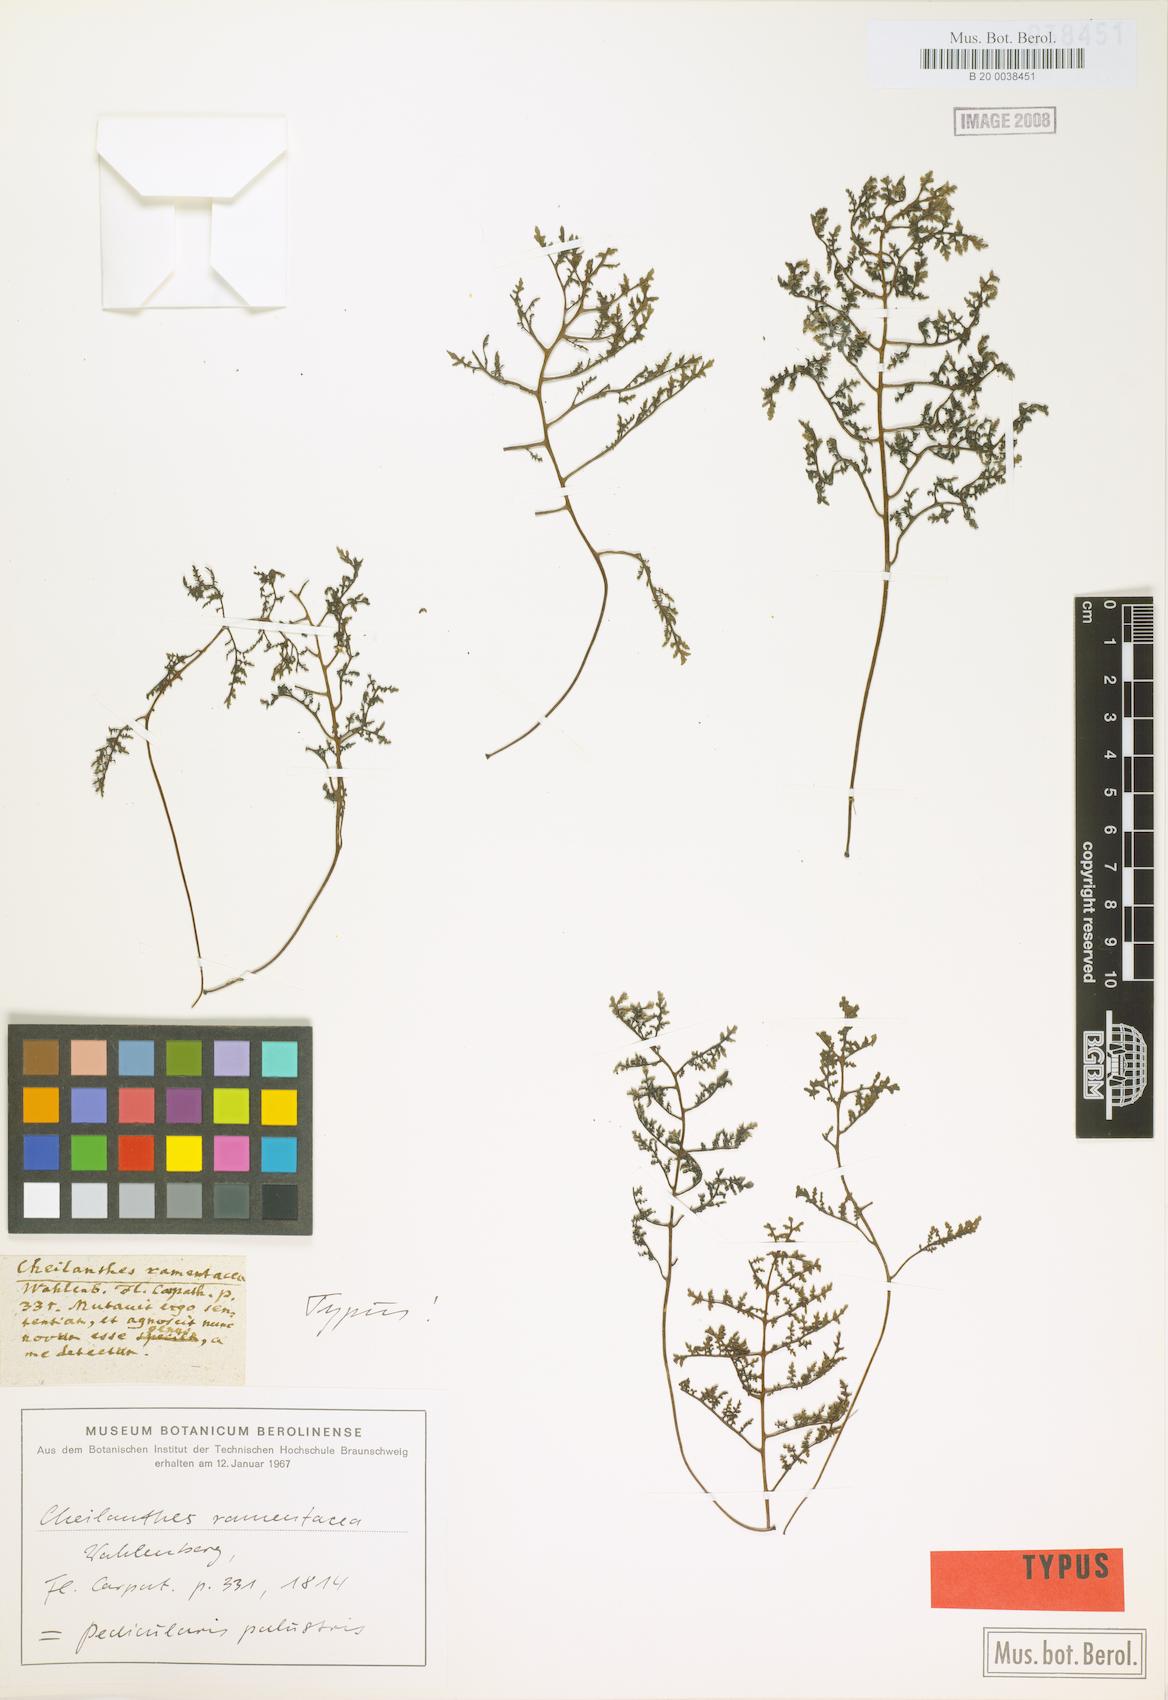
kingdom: Plantae
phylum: Tracheophyta
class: Magnoliopsida
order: Lamiales
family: Orobanchaceae
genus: Pedicularis
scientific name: Pedicularis palustris
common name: Marsh lousewort
